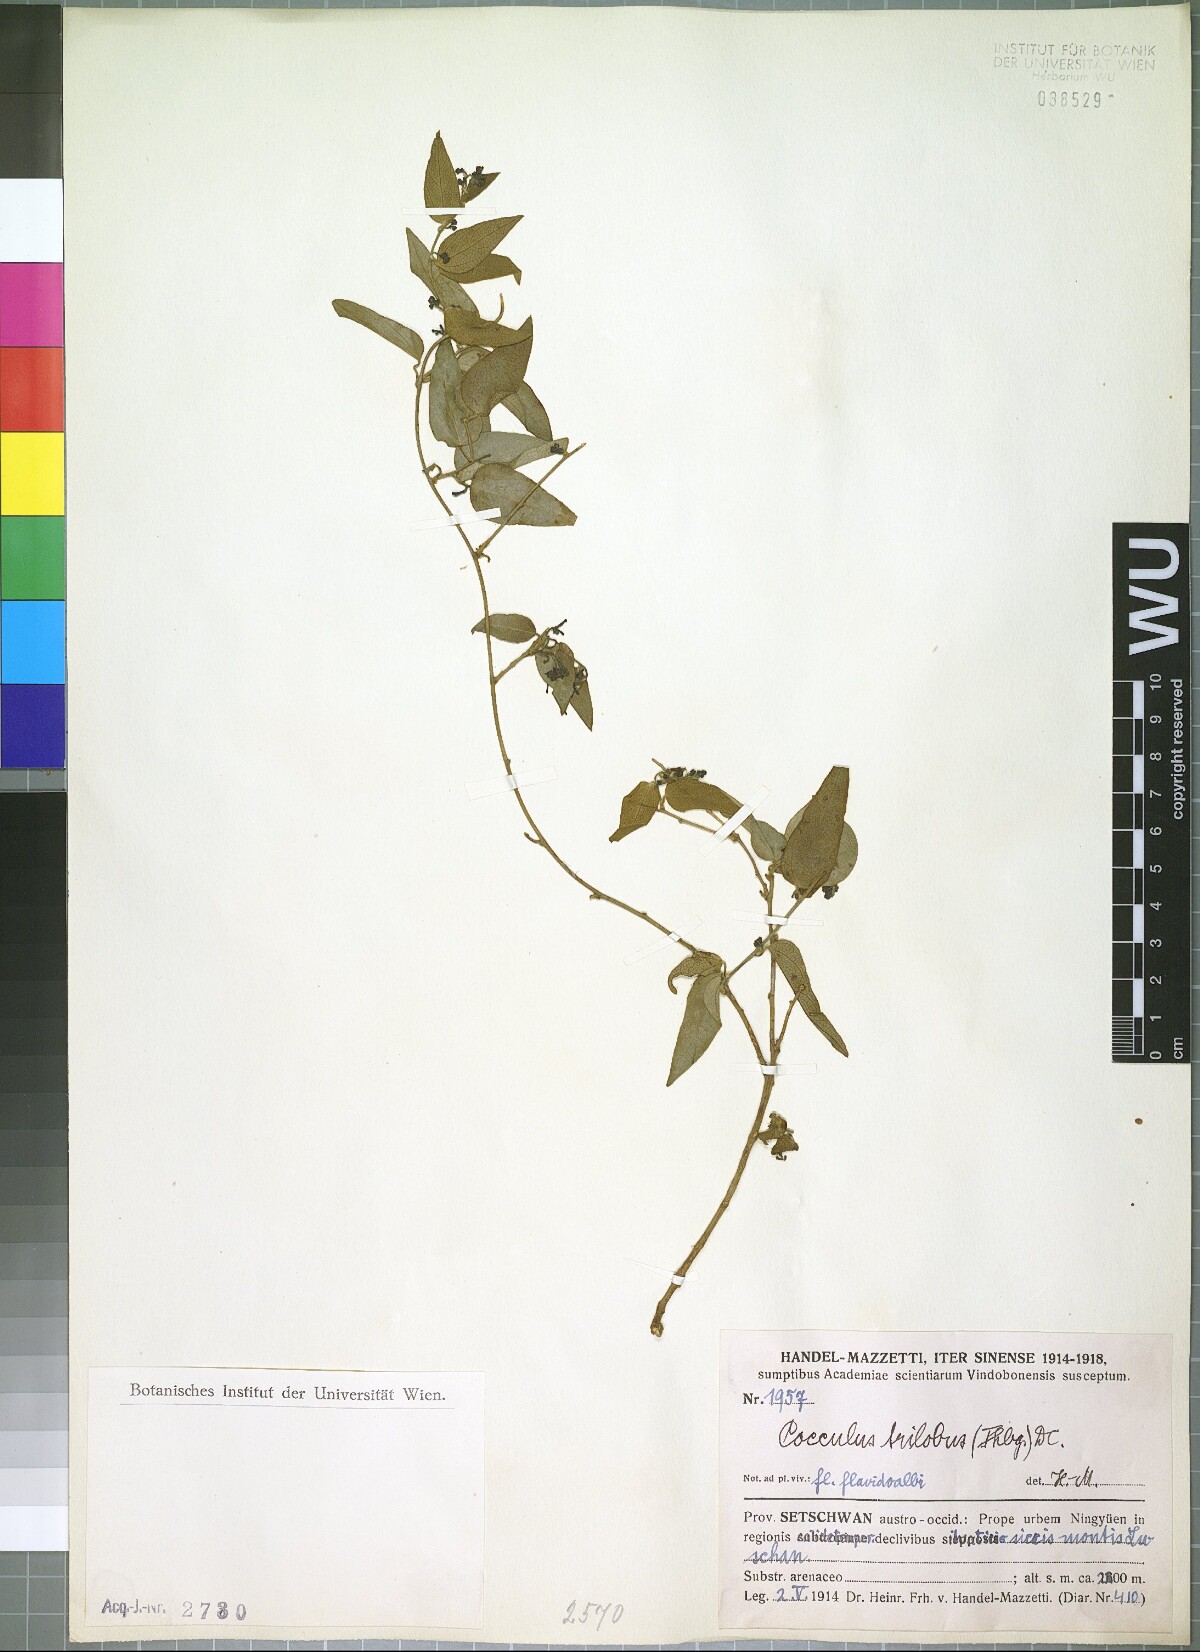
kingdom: Plantae
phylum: Tracheophyta
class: Magnoliopsida
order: Ranunculales
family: Menispermaceae
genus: Cocculus
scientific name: Cocculus orbiculatus
